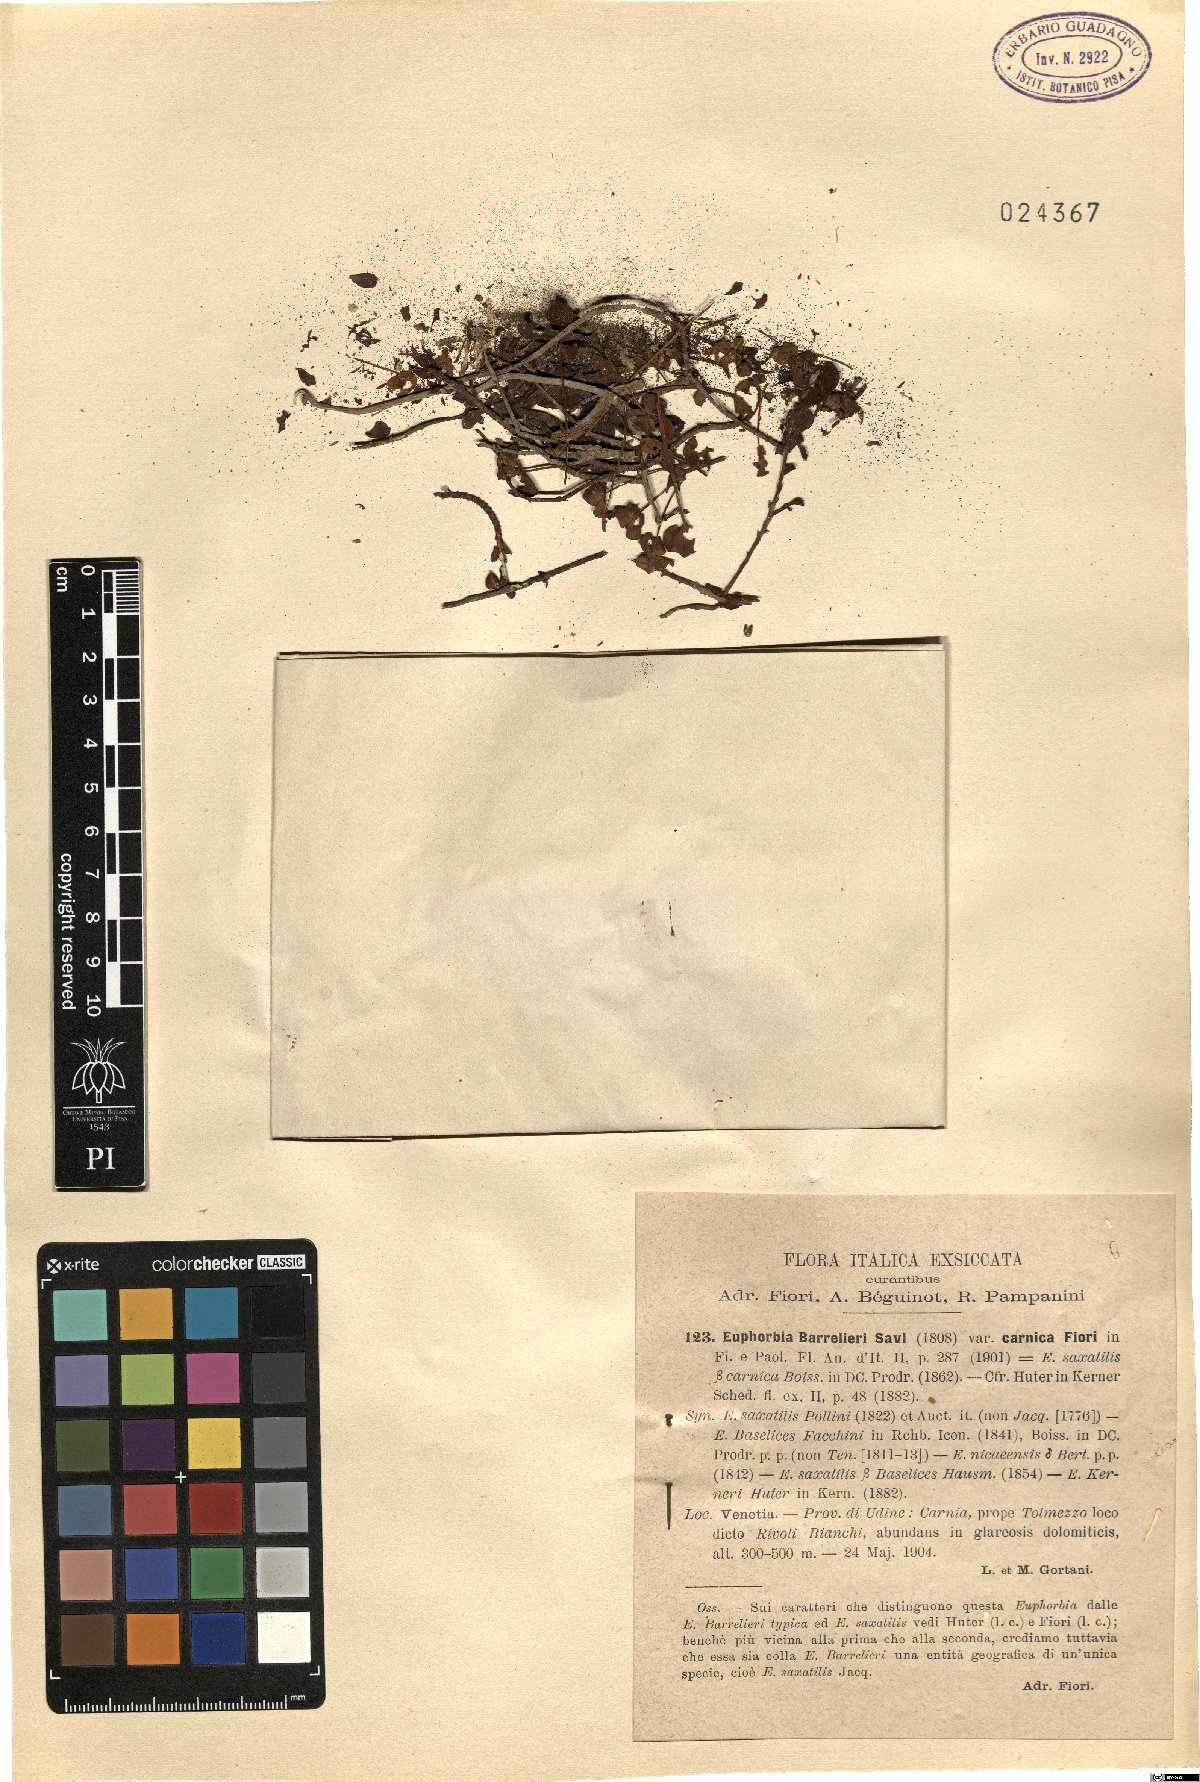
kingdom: Plantae
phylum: Tracheophyta
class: Magnoliopsida
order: Malpighiales
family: Euphorbiaceae
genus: Euphorbia
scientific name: Euphorbia triflora
